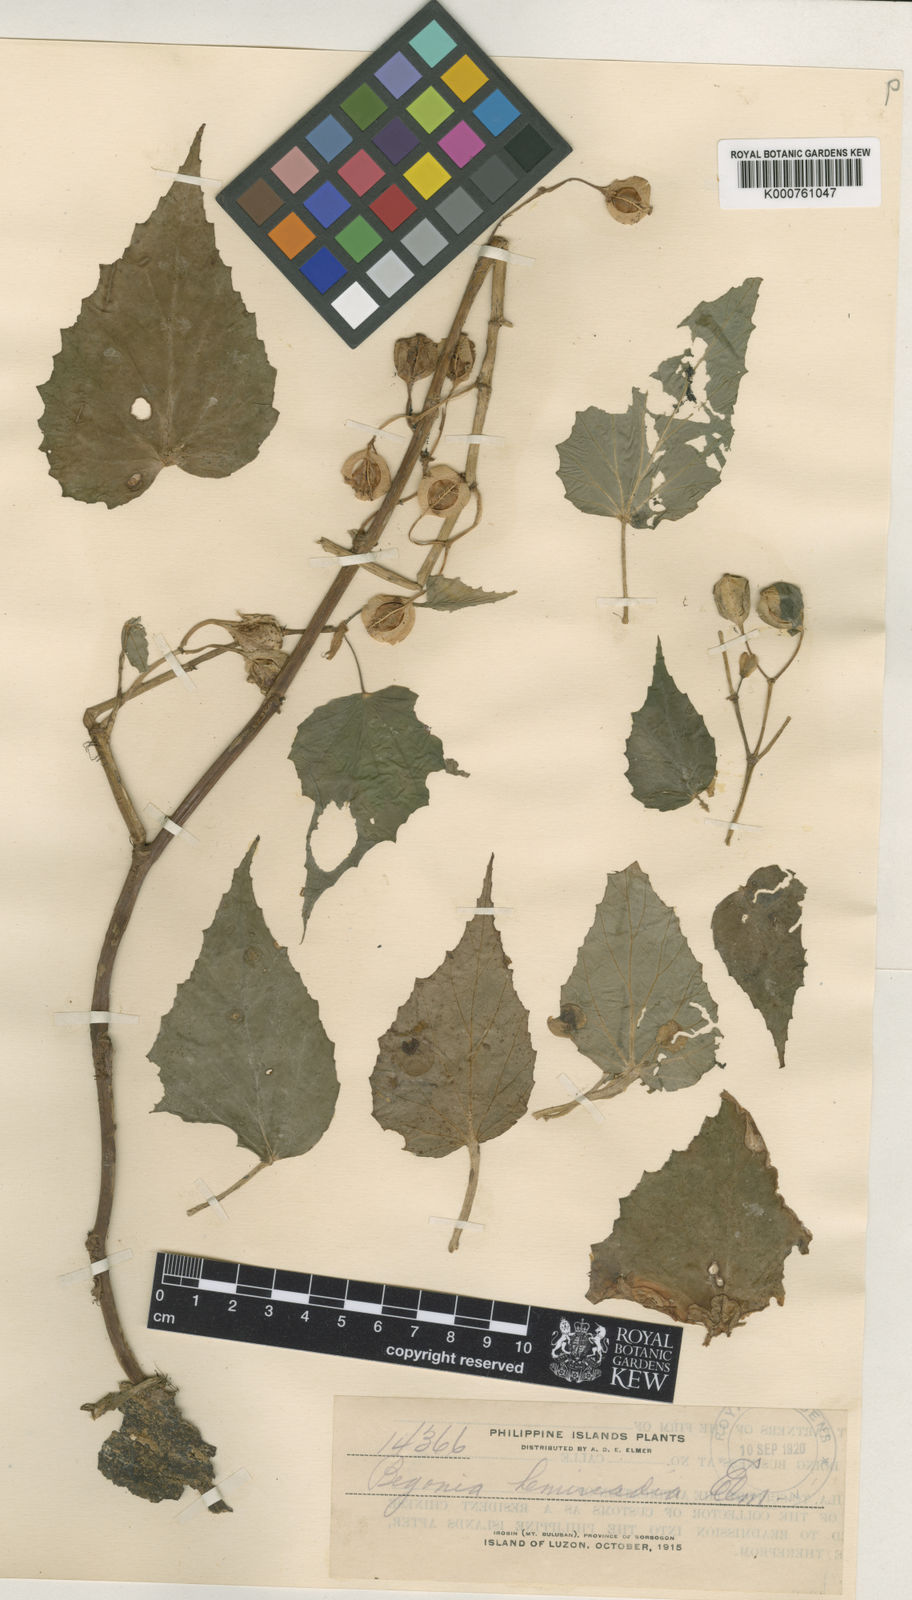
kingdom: Plantae
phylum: Tracheophyta
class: Magnoliopsida
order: Cucurbitales
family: Begoniaceae
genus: Begonia
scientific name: Begonia binuangensis
